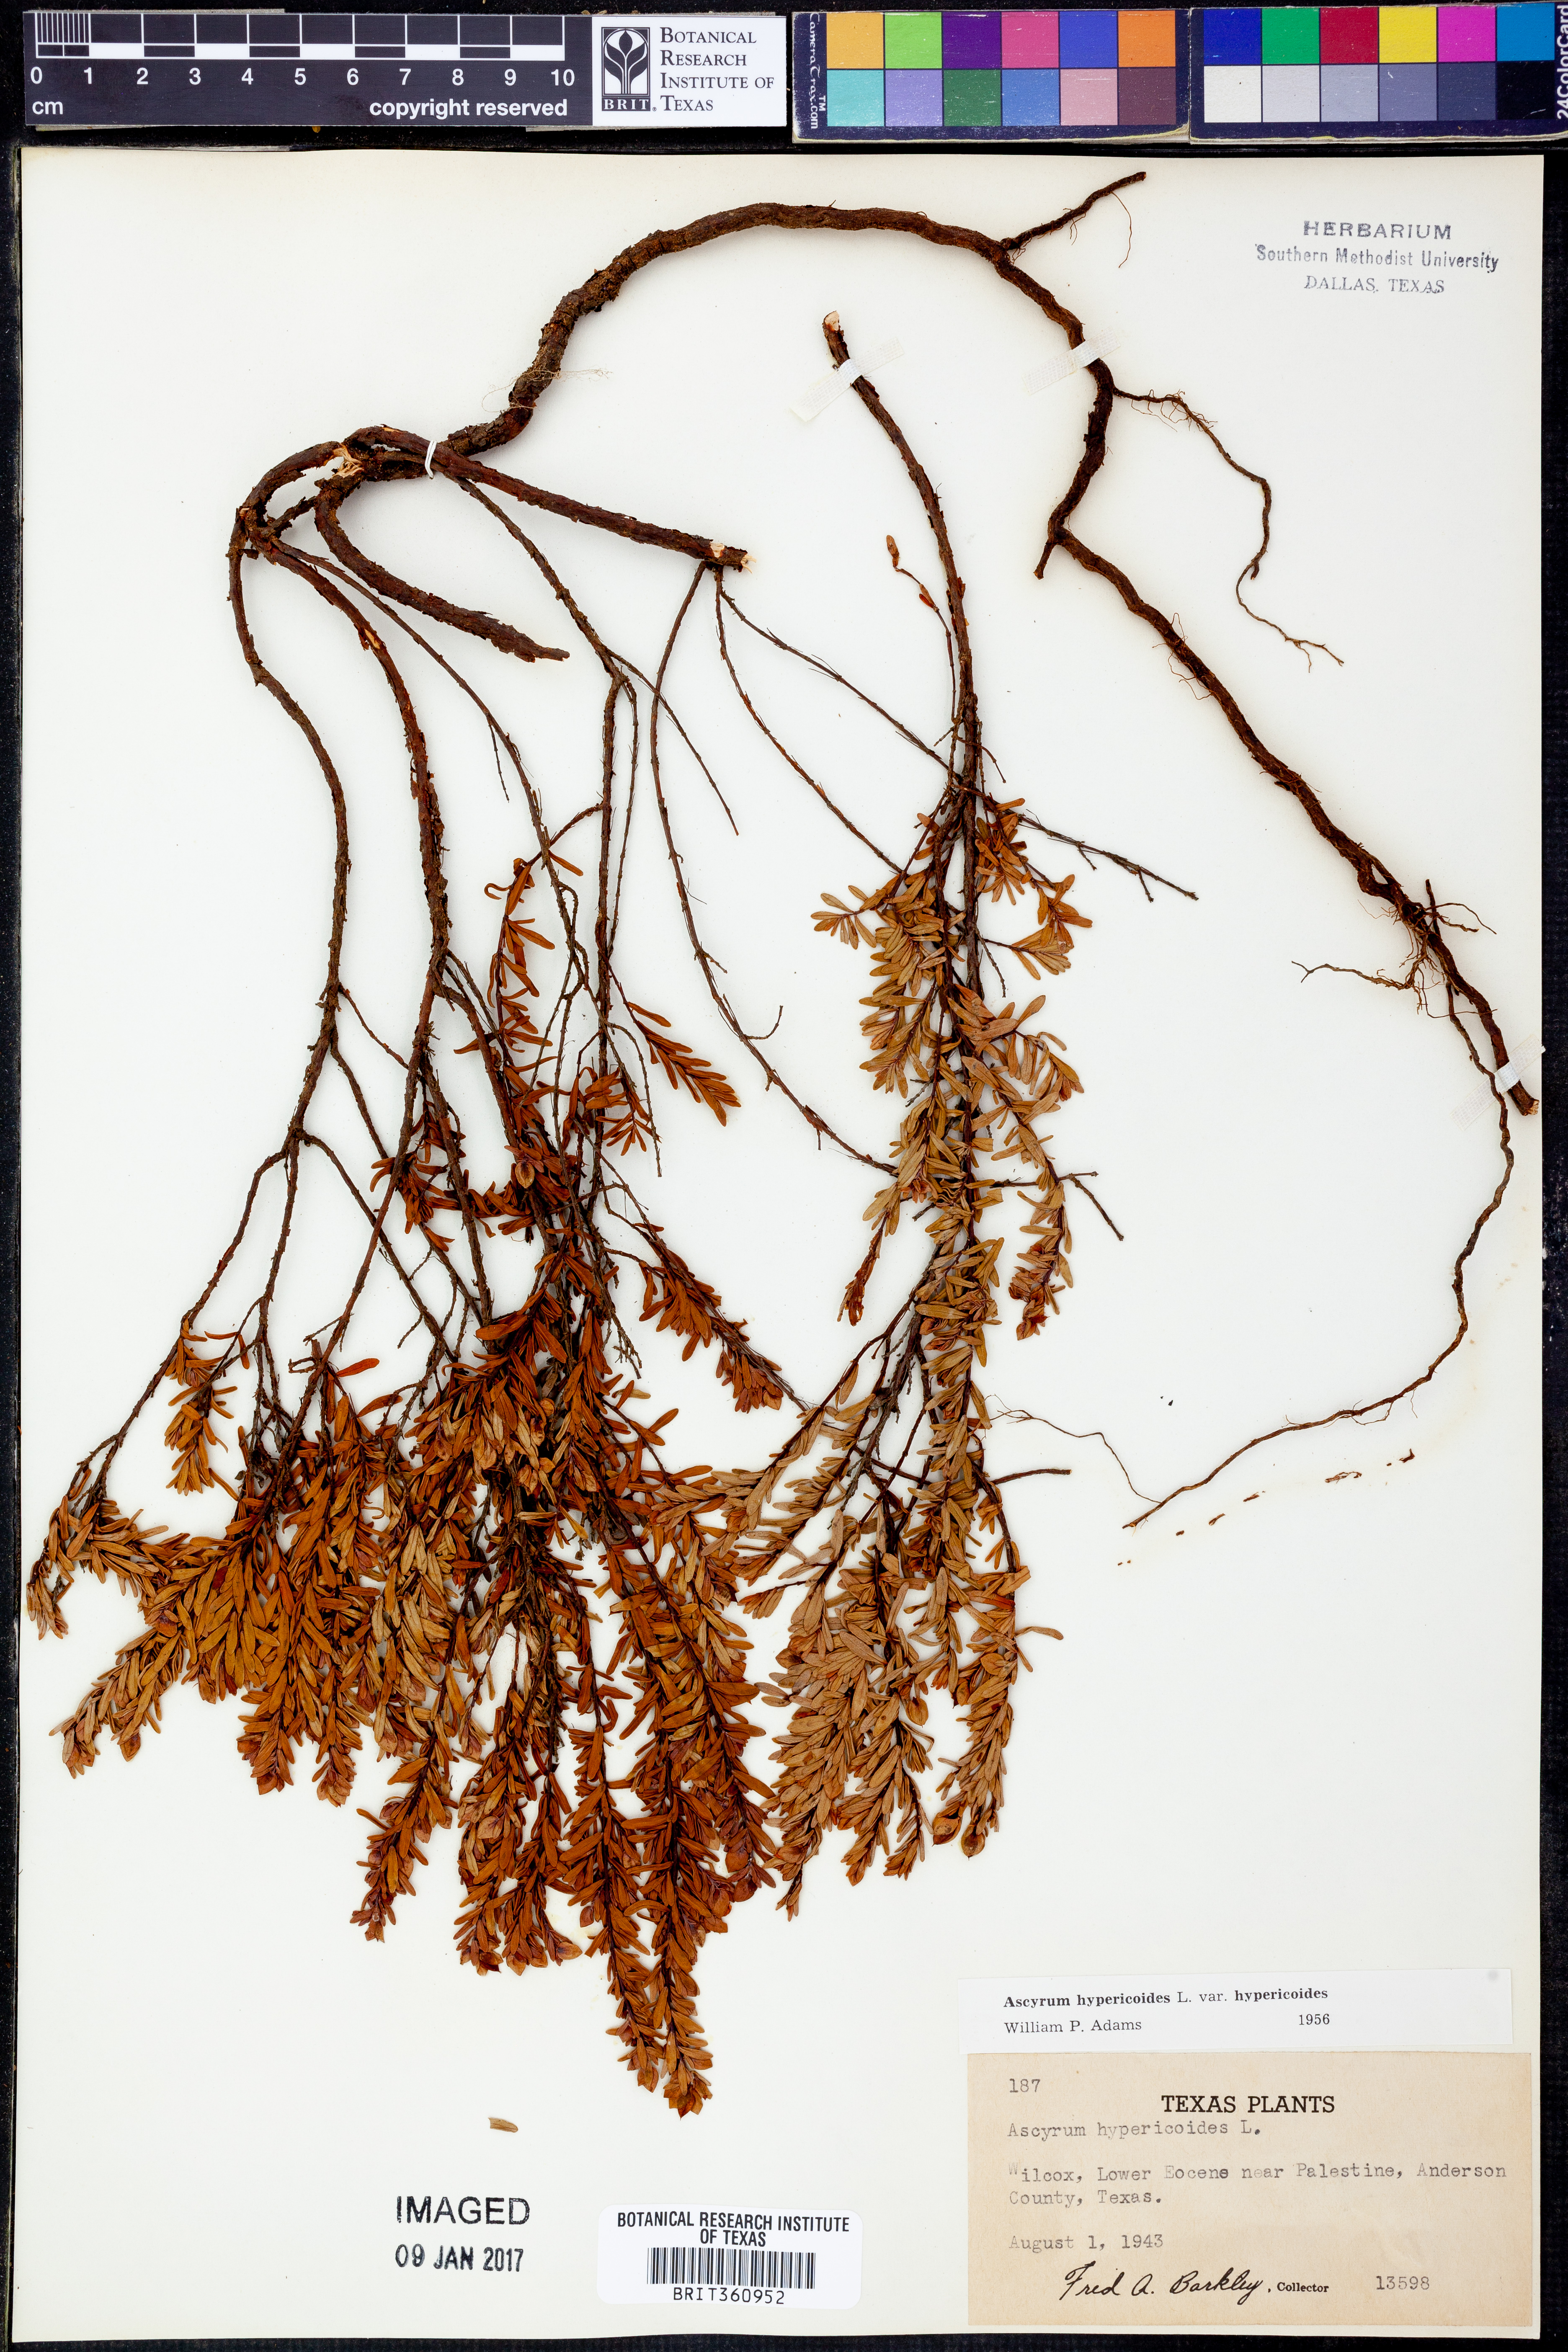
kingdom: Plantae
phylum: Tracheophyta
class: Magnoliopsida
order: Malpighiales
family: Hypericaceae
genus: Hypericum
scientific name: Hypericum hypericoides
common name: St. andrew's cross
